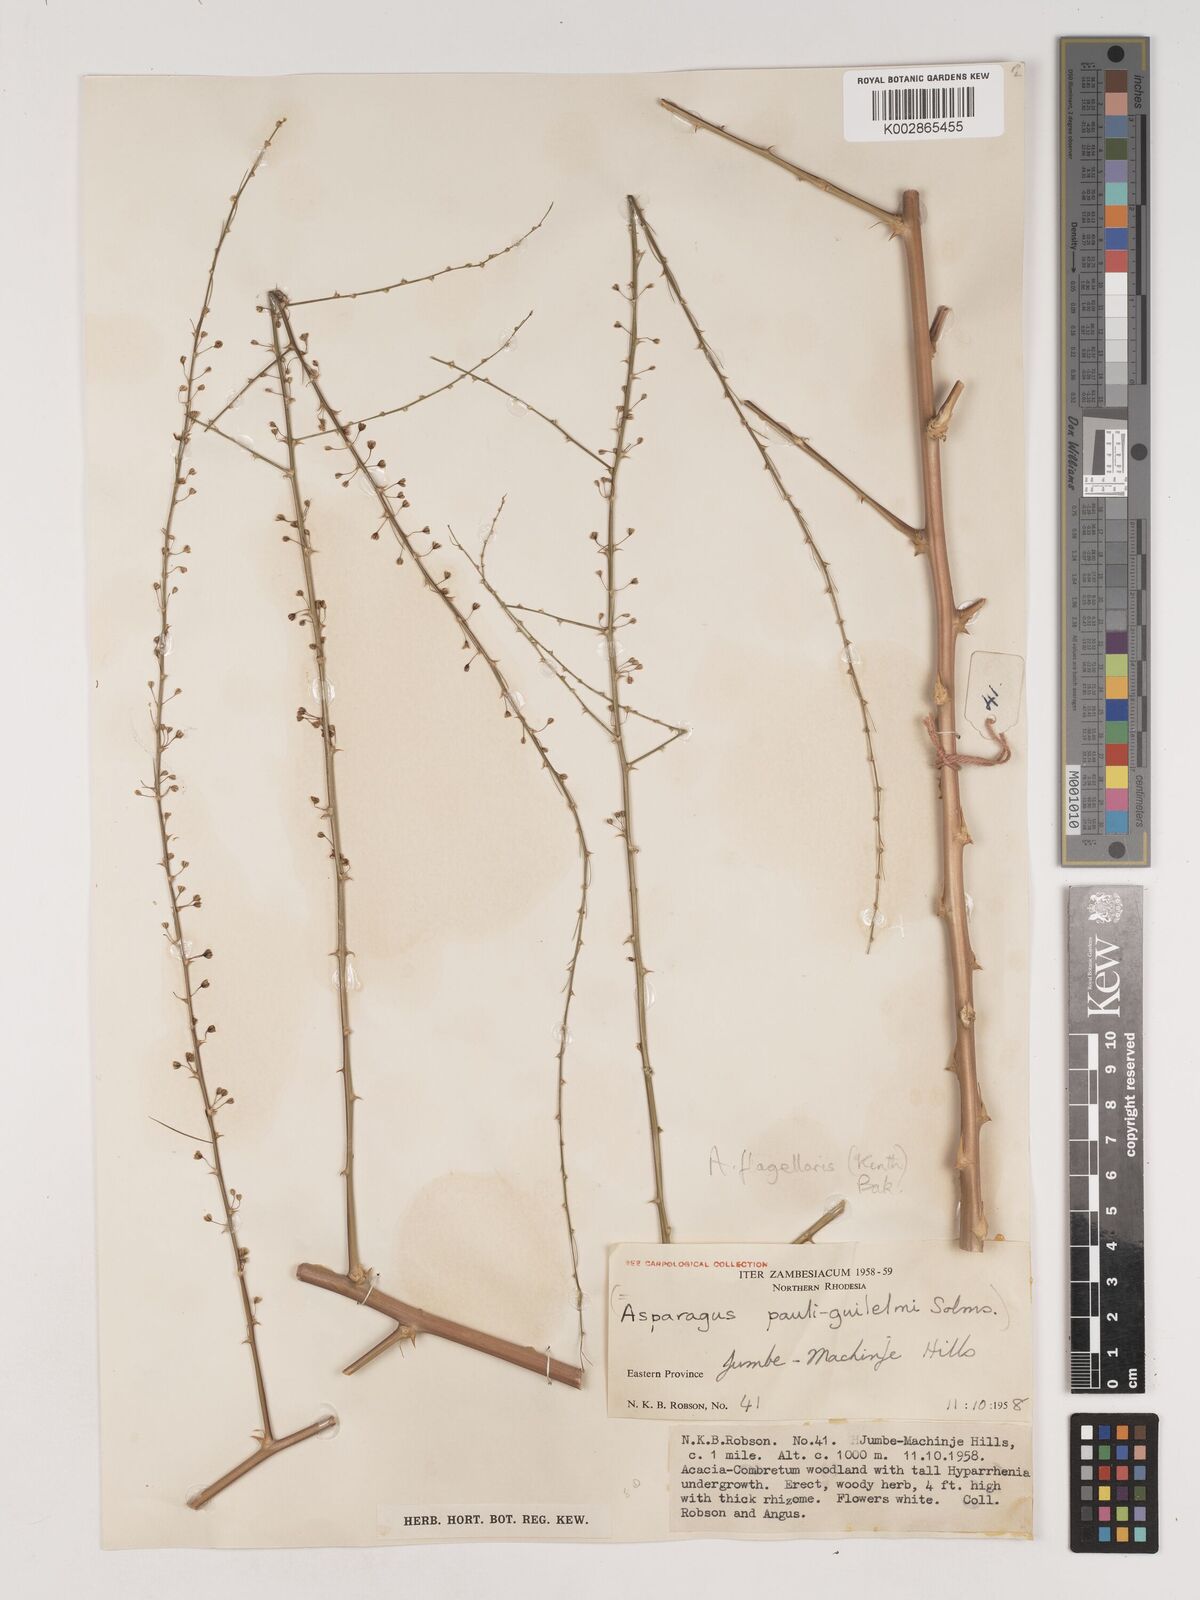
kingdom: Plantae
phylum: Tracheophyta
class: Liliopsida
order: Asparagales
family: Asparagaceae
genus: Asparagus
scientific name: Asparagus flagellaris
